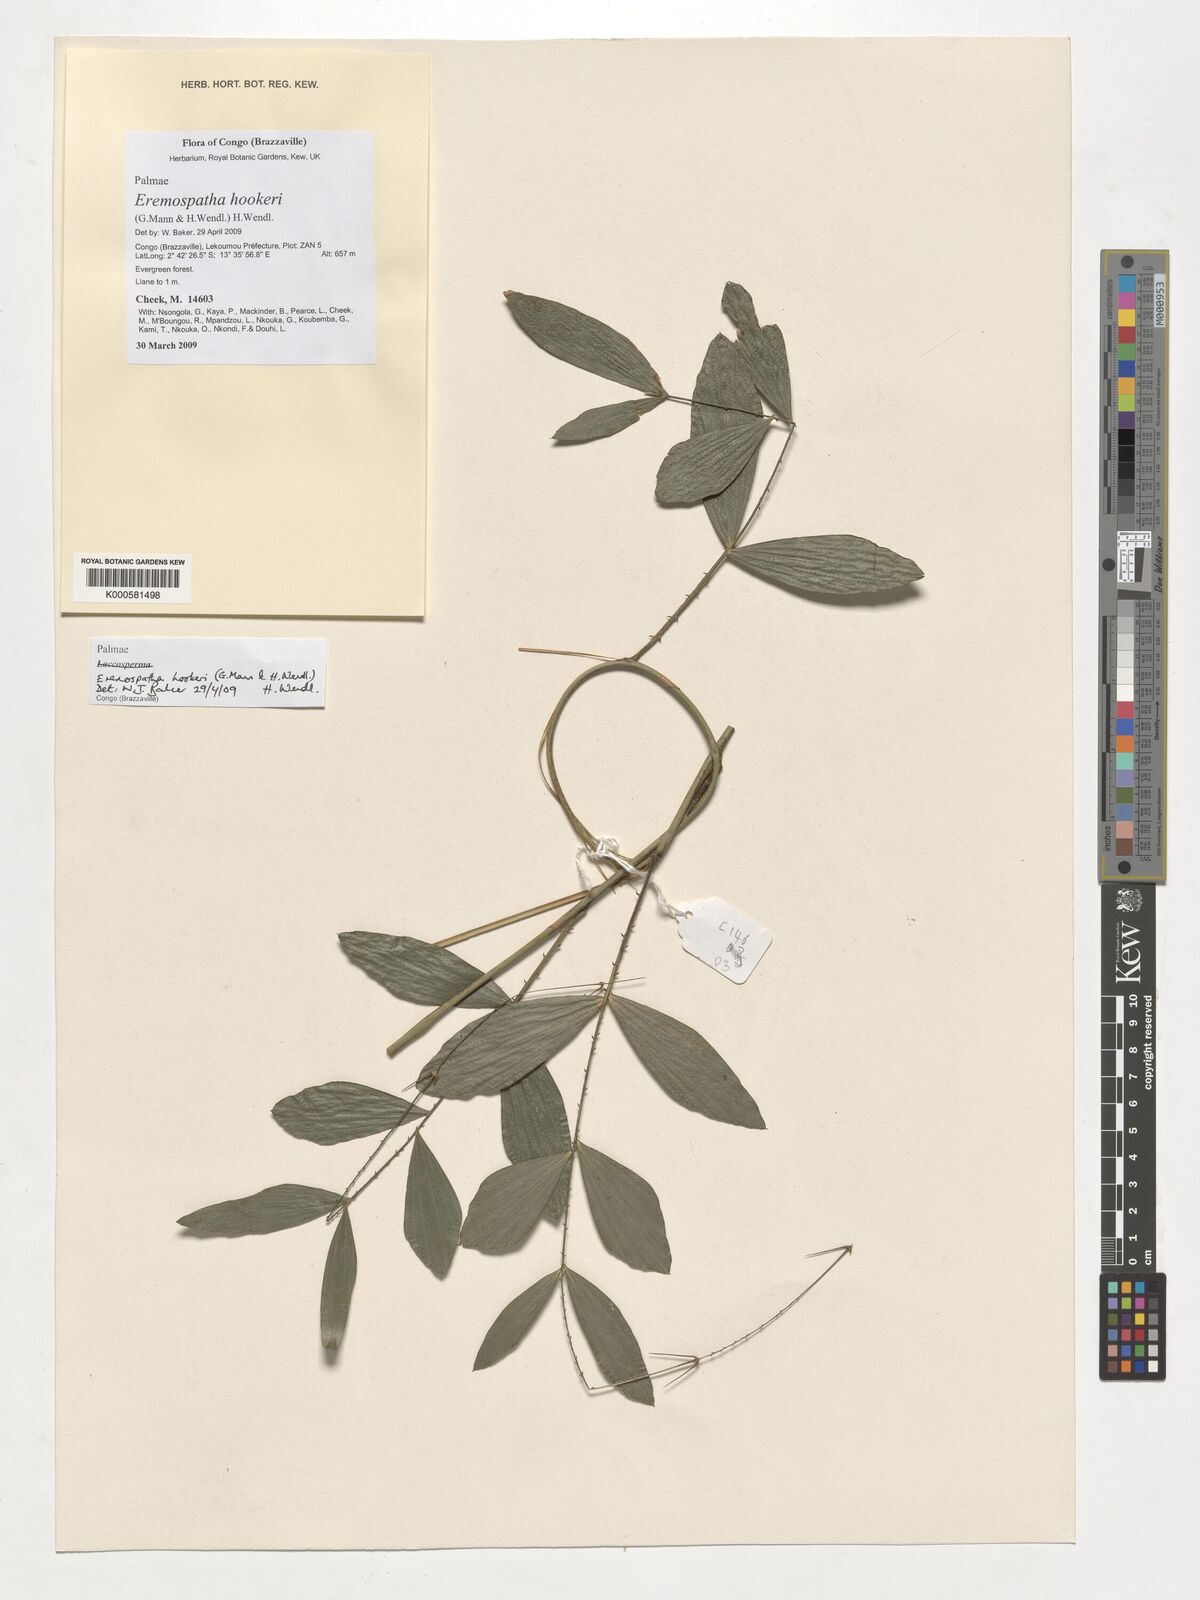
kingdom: Plantae
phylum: Tracheophyta
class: Liliopsida
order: Arecales
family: Arecaceae
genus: Eremospatha
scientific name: Eremospatha hookeri
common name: Rattan
